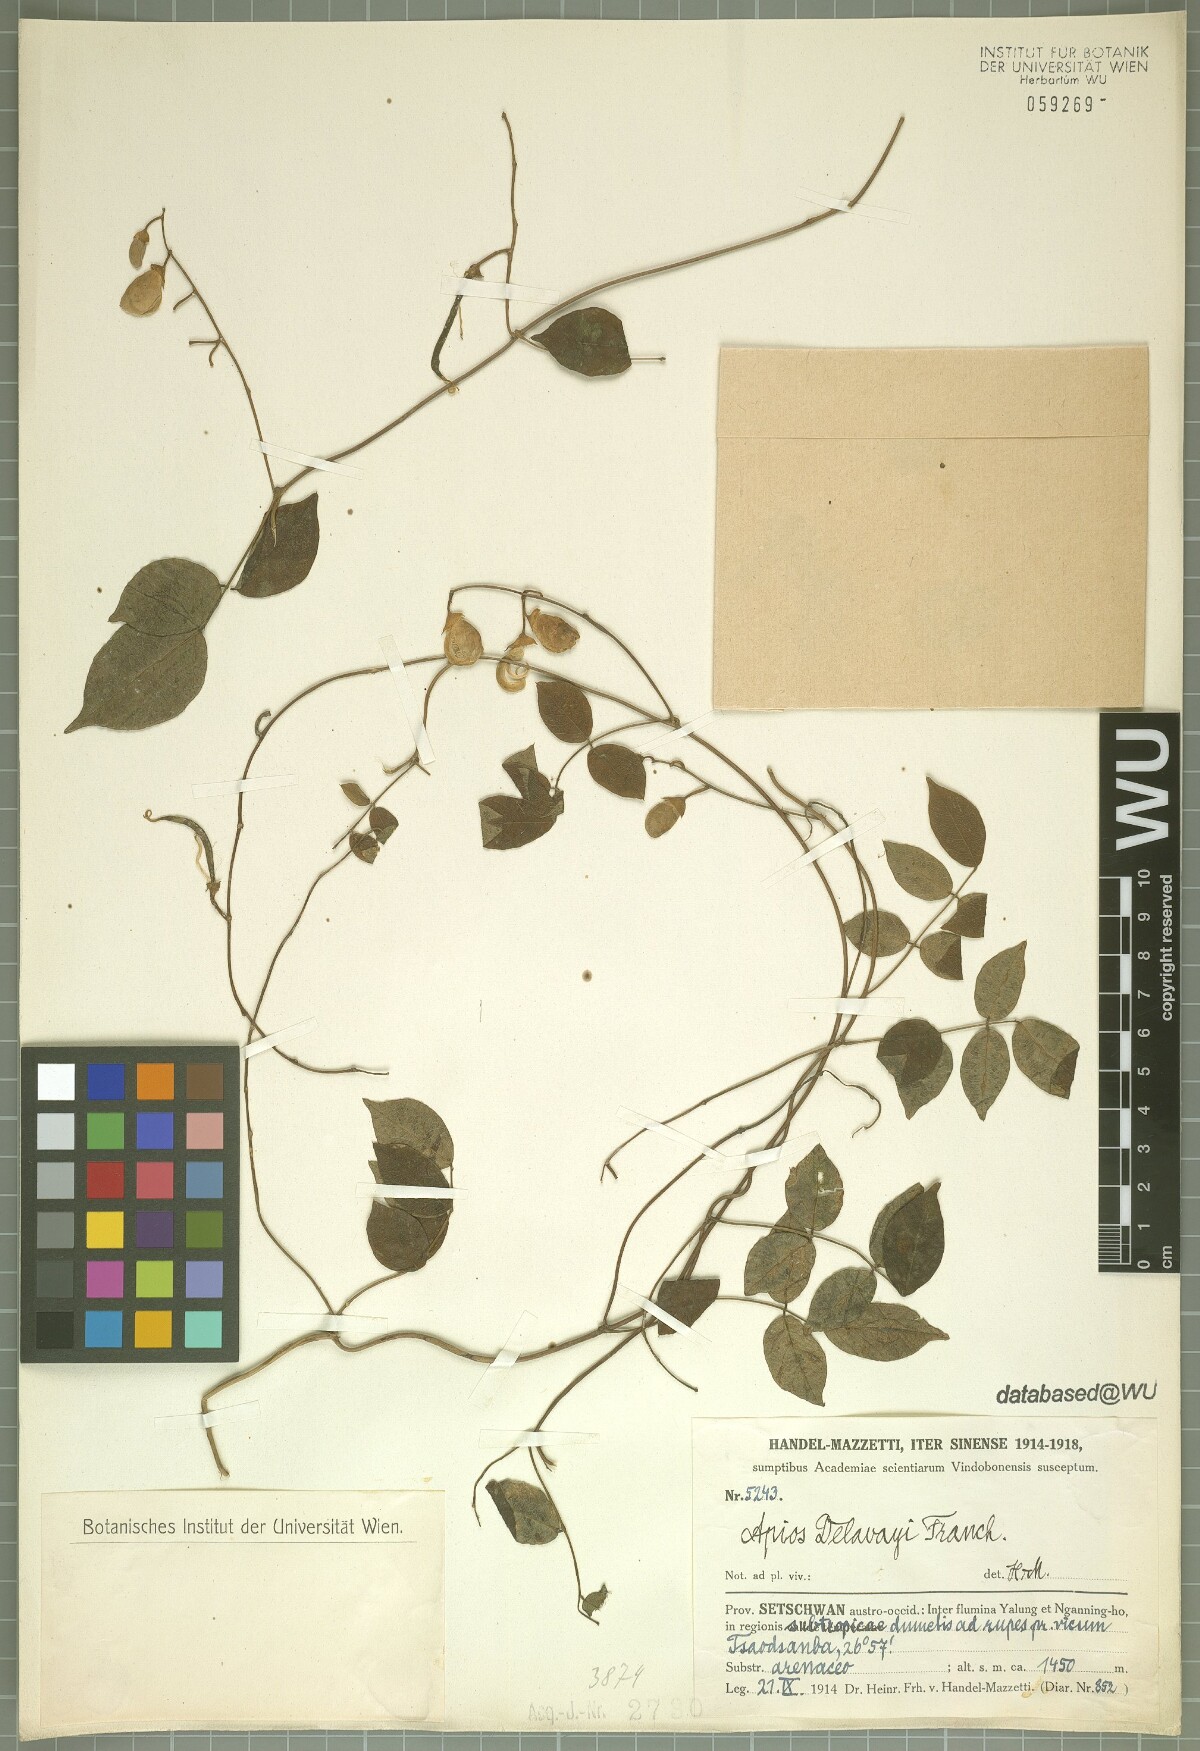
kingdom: Plantae
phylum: Tracheophyta
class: Magnoliopsida
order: Fabales
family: Fabaceae
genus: Apios
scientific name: Apios delavayi
